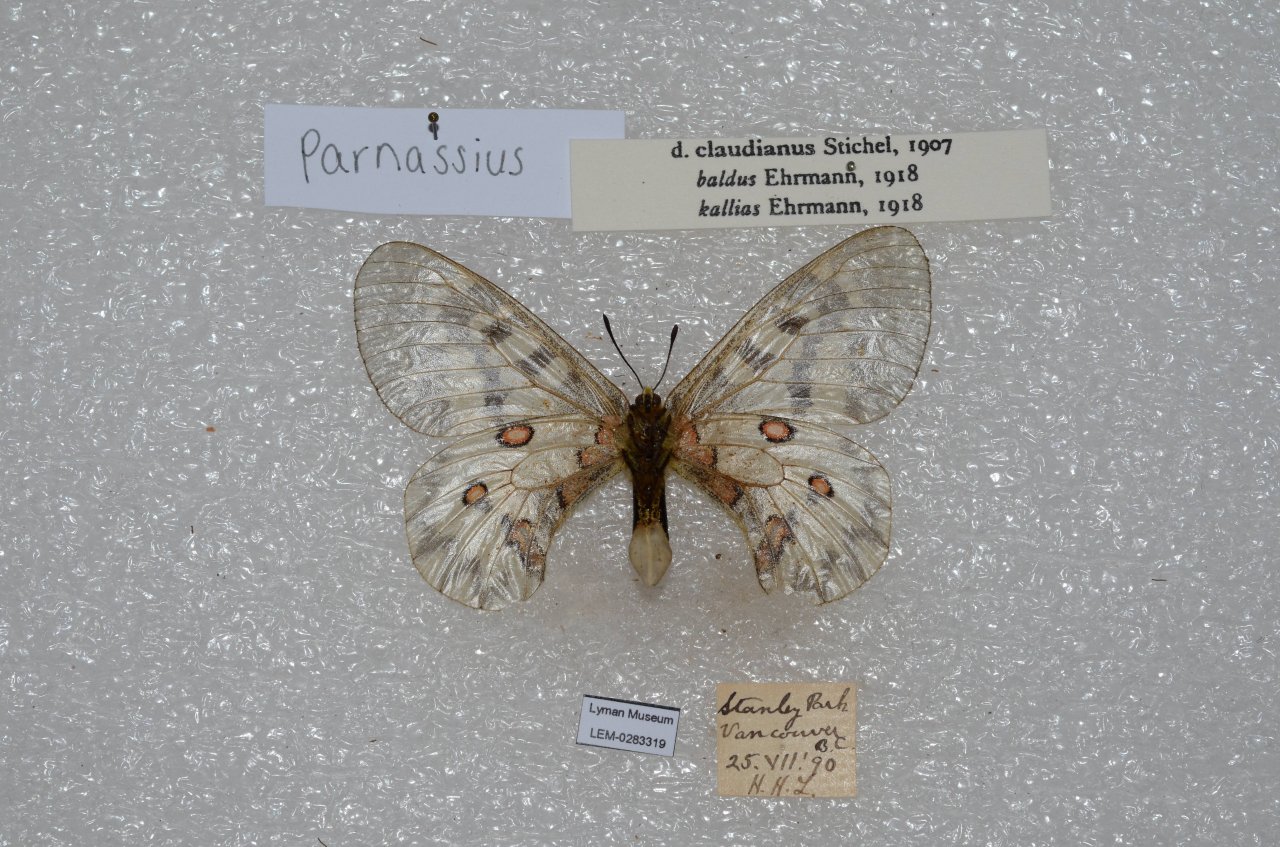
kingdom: Animalia
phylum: Arthropoda
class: Insecta
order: Lepidoptera
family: Papilionidae
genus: Parnassius
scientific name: Parnassius clodius
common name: Clodius Parnassian
